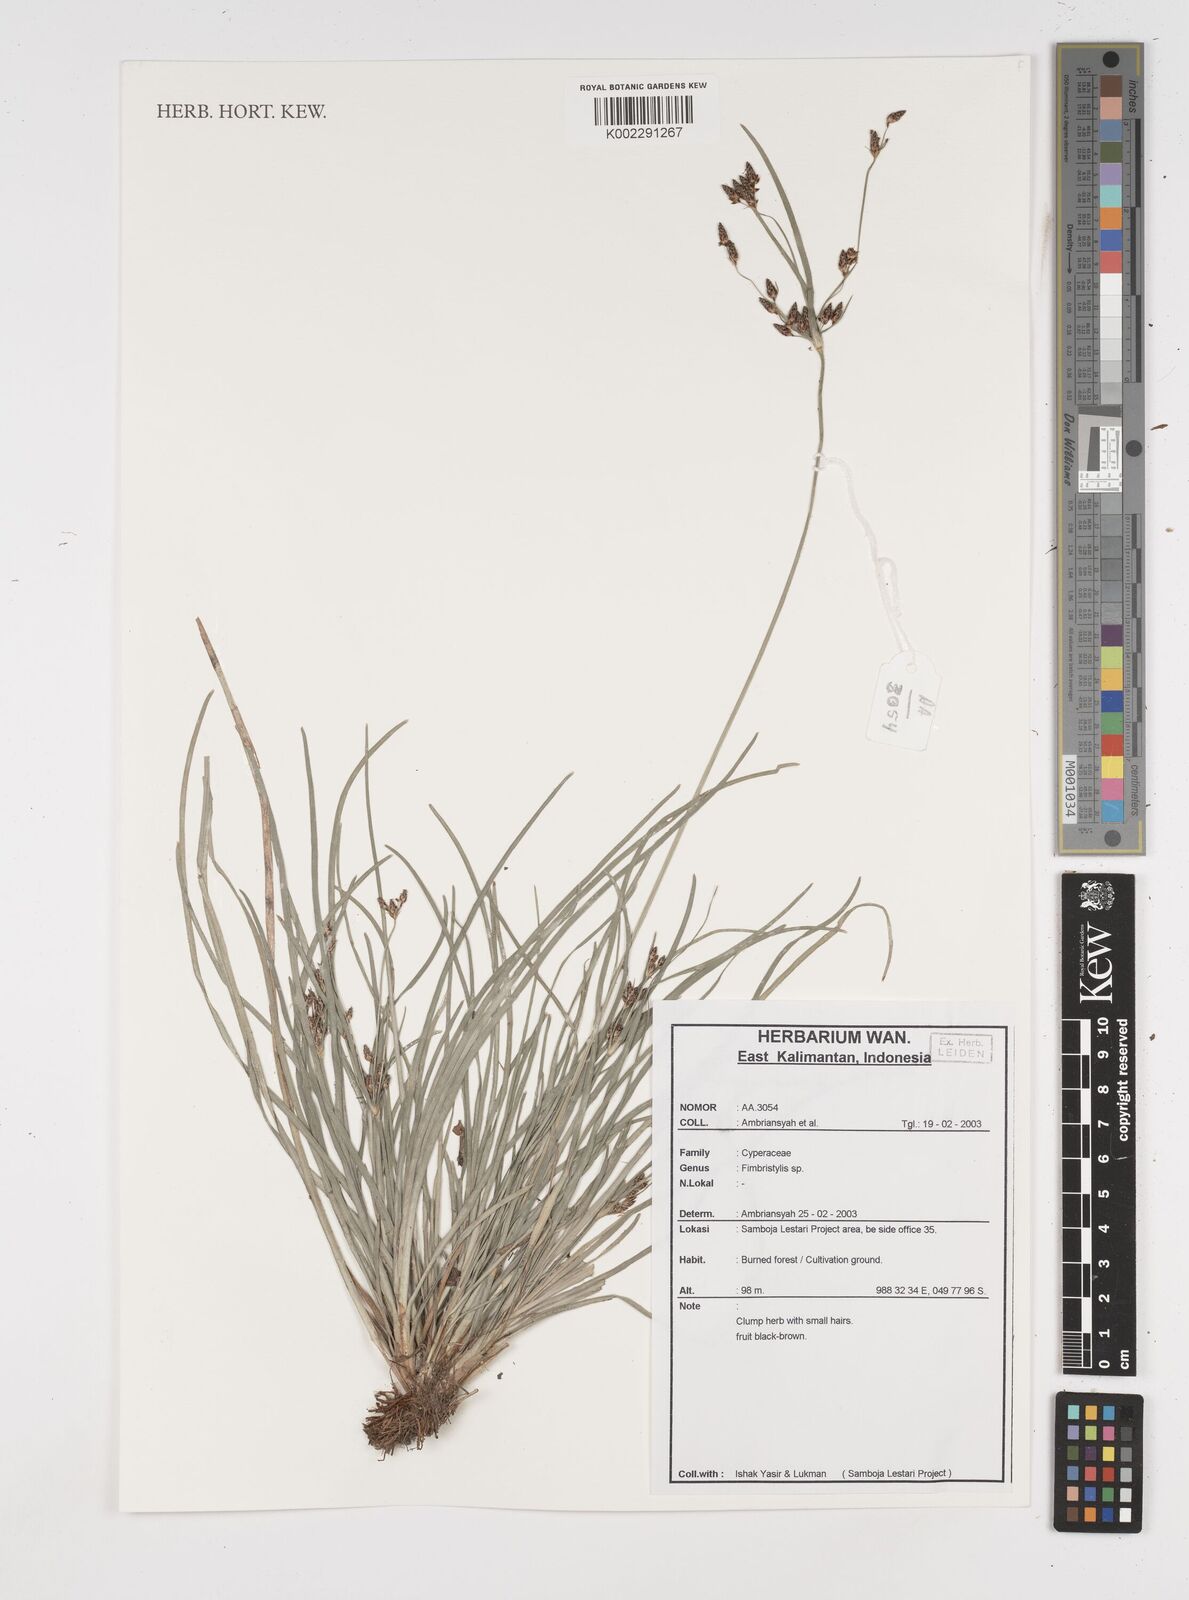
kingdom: Plantae
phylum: Tracheophyta
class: Liliopsida
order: Poales
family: Cyperaceae
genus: Fimbristylis
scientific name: Fimbristylis
